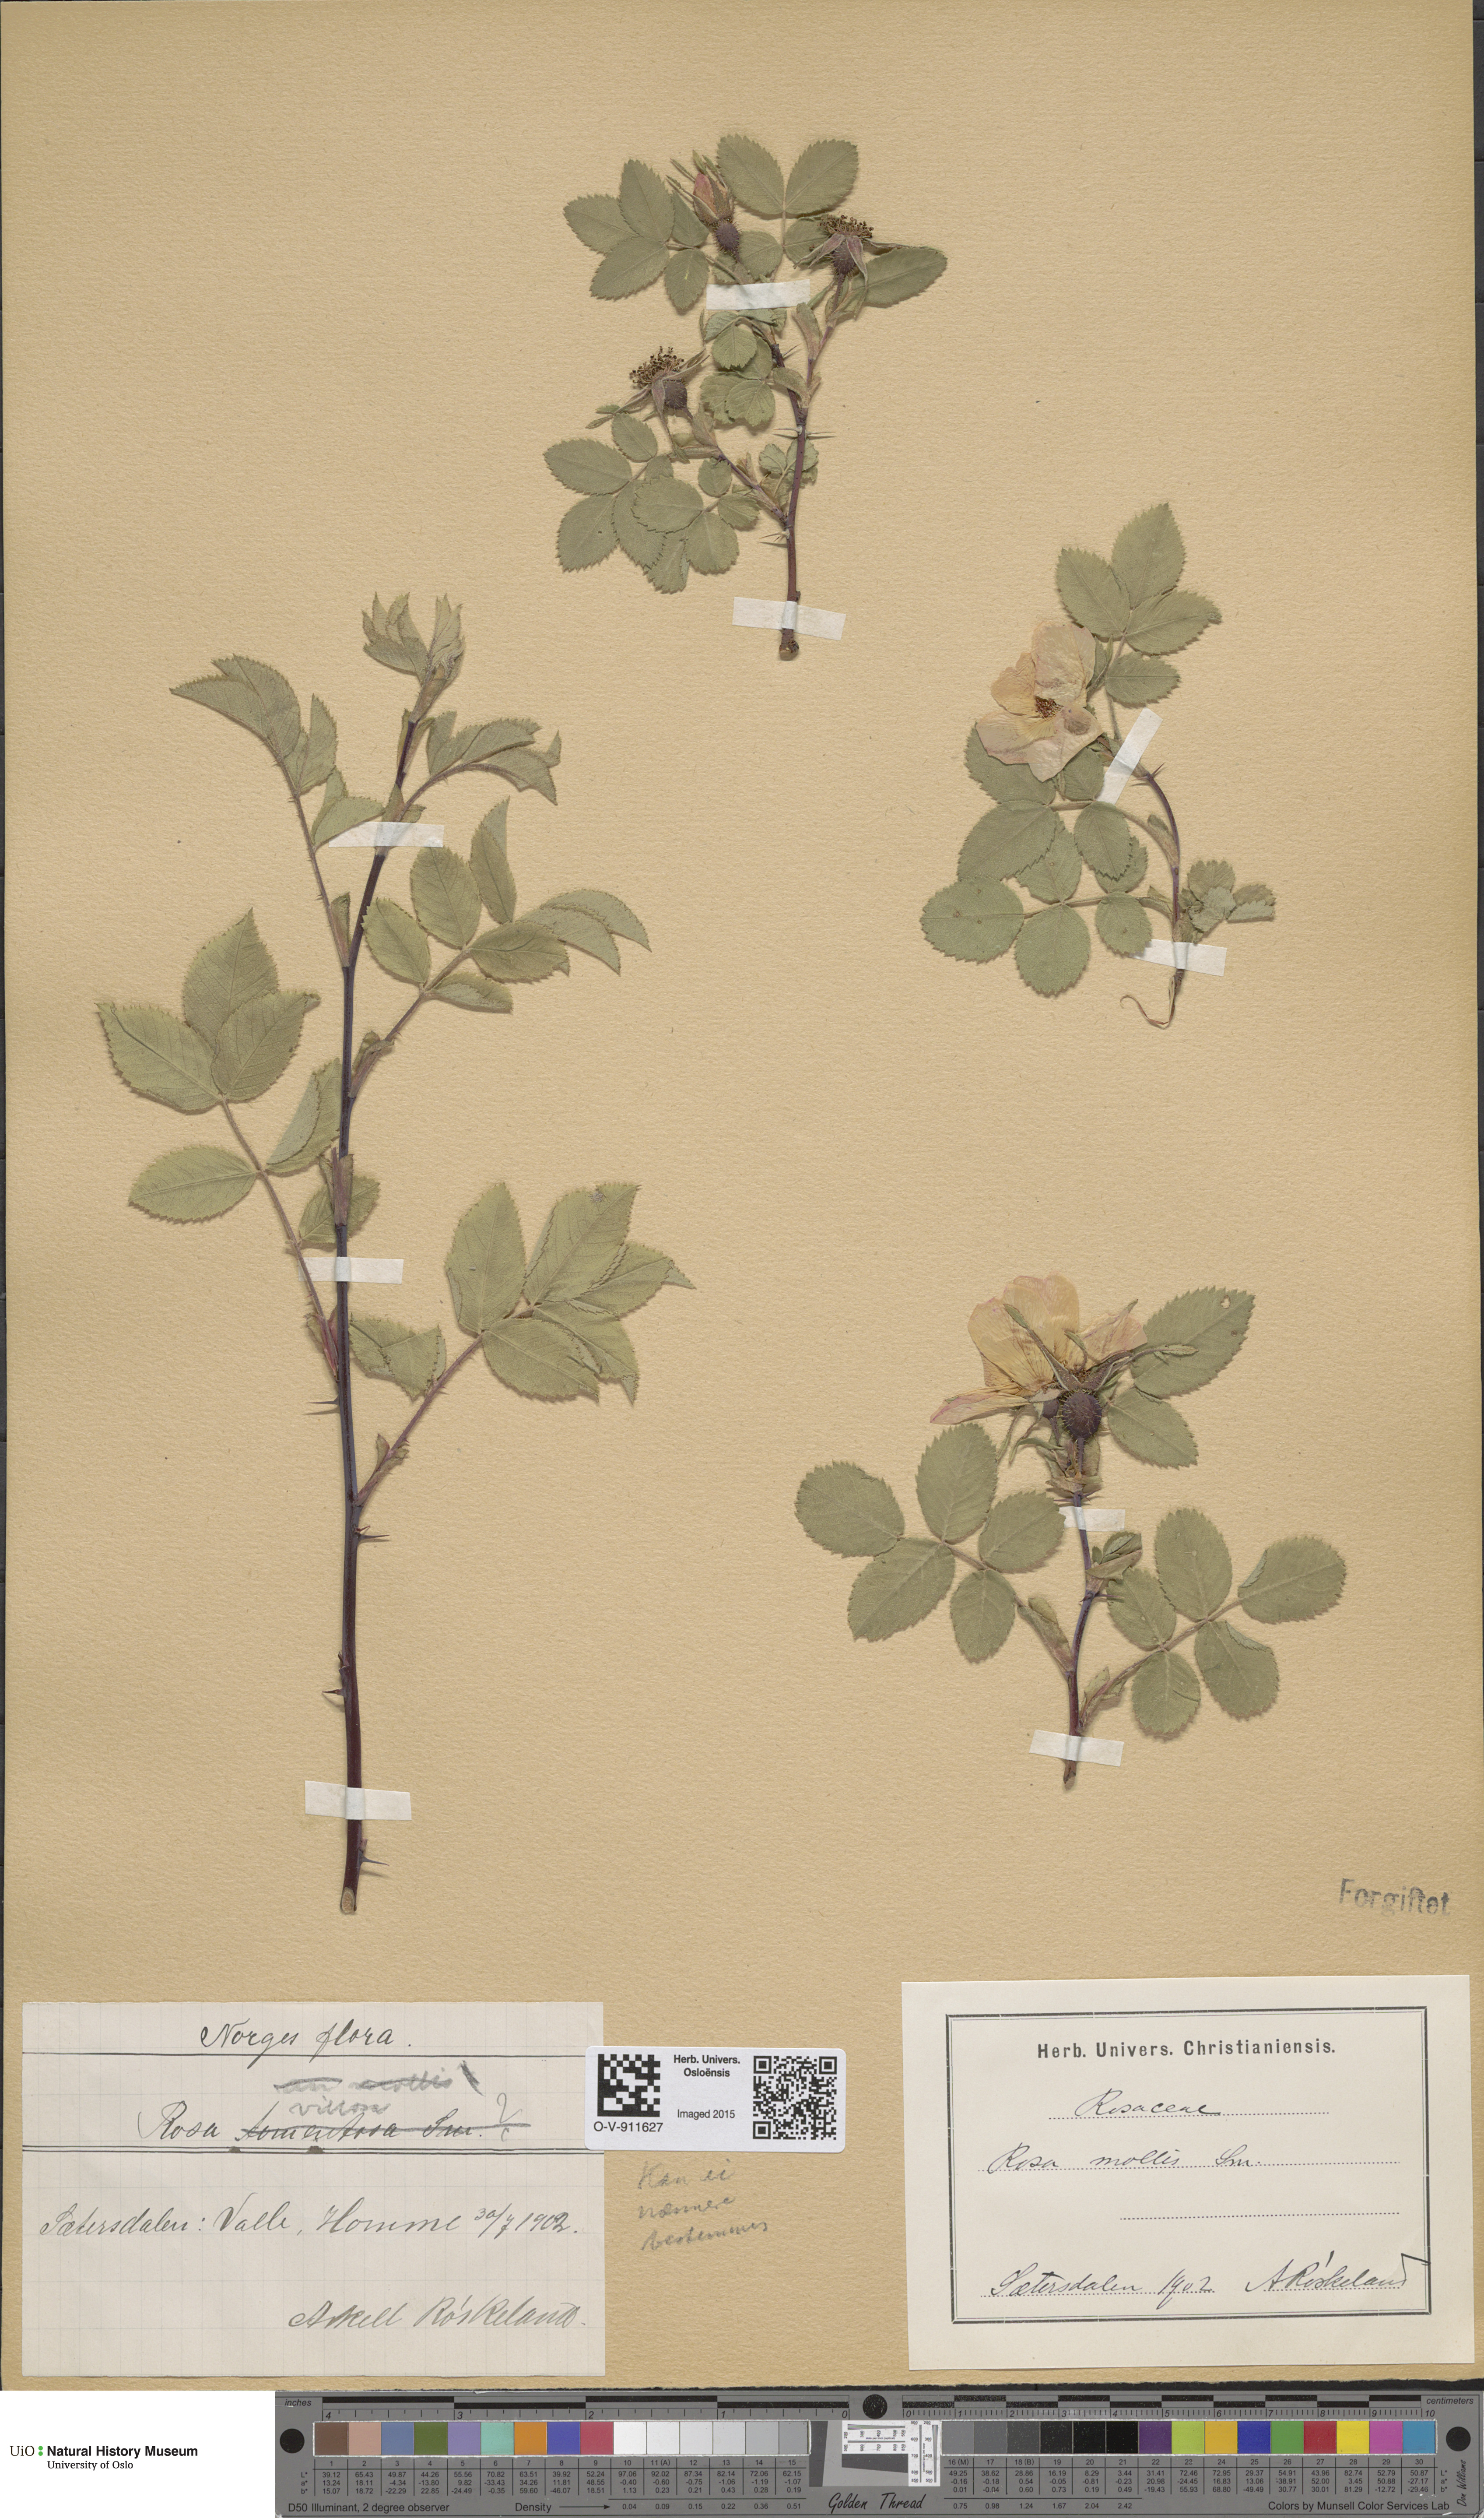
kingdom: Plantae
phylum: Tracheophyta
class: Magnoliopsida
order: Rosales
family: Rosaceae
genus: Rosa
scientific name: Rosa villosa
